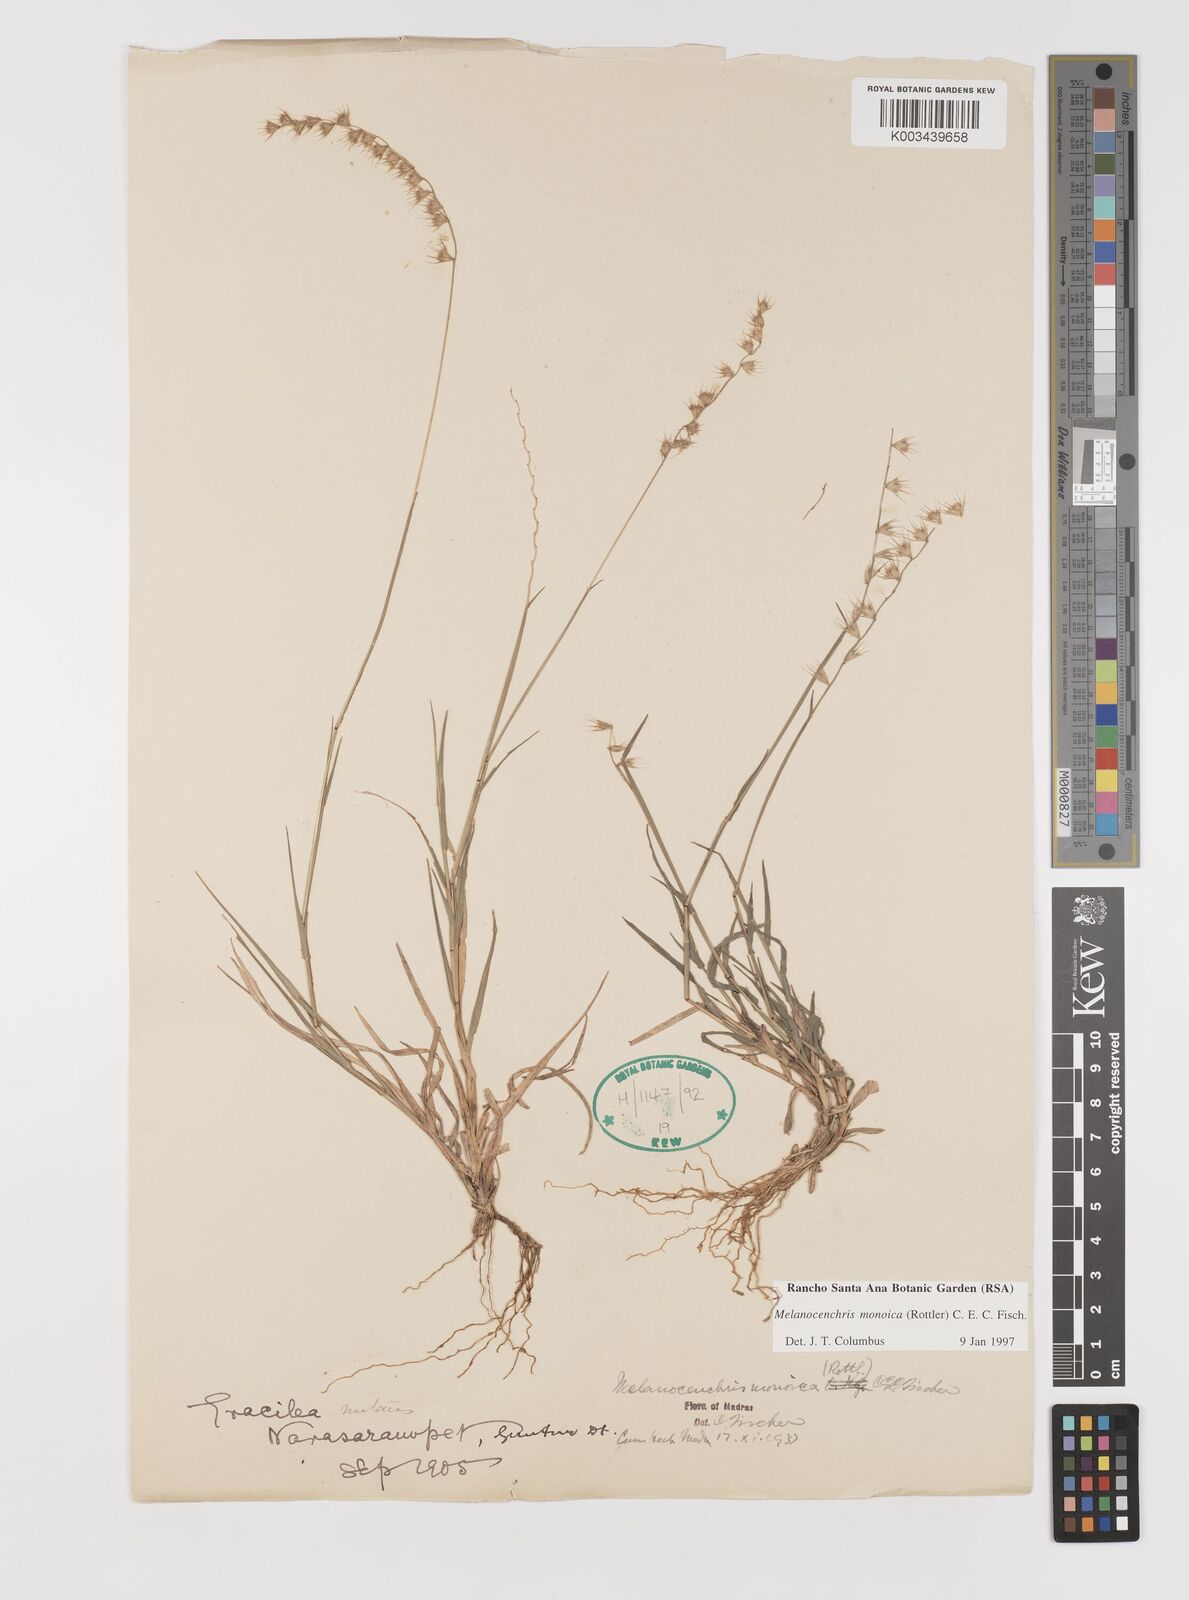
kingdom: Plantae
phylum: Tracheophyta
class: Liliopsida
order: Poales
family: Poaceae
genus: Melanocenchris
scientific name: Melanocenchris rothiana
